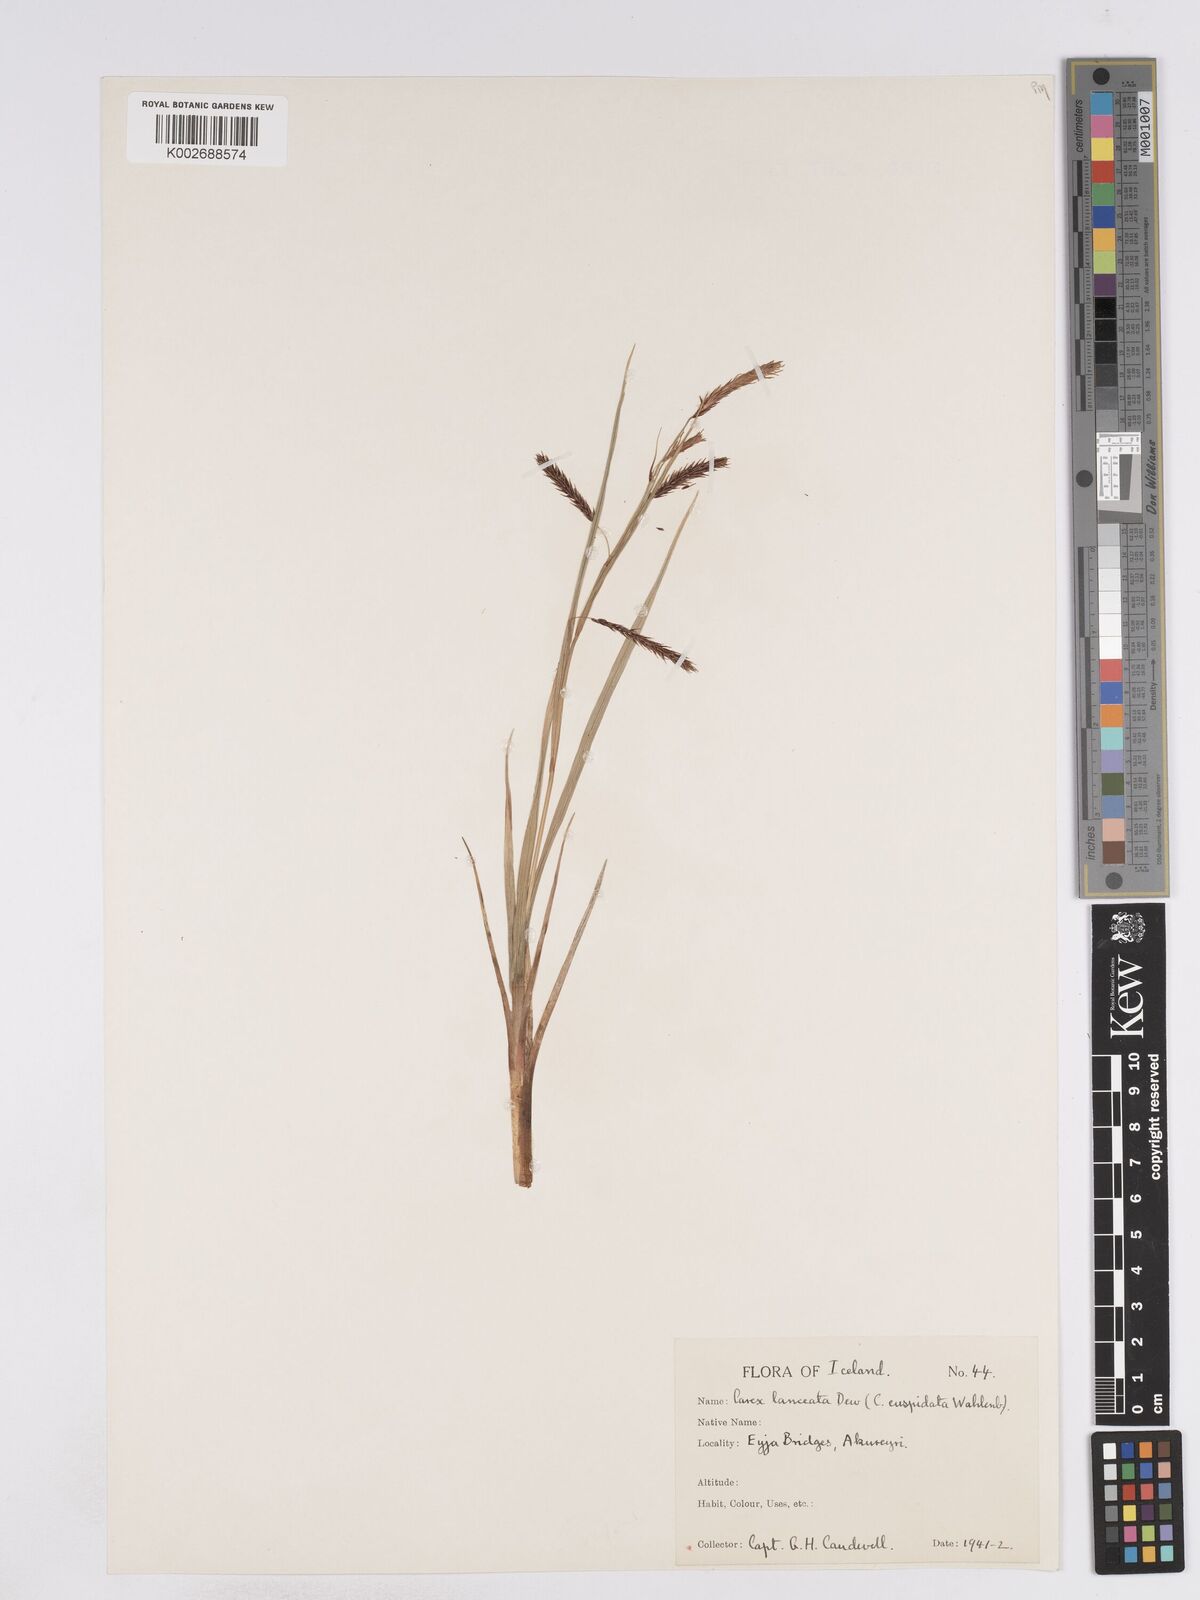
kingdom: Plantae
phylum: Tracheophyta
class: Liliopsida
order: Poales
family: Cyperaceae
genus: Carex
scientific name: Carex lyngbyei
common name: Lyngbye's sedge
